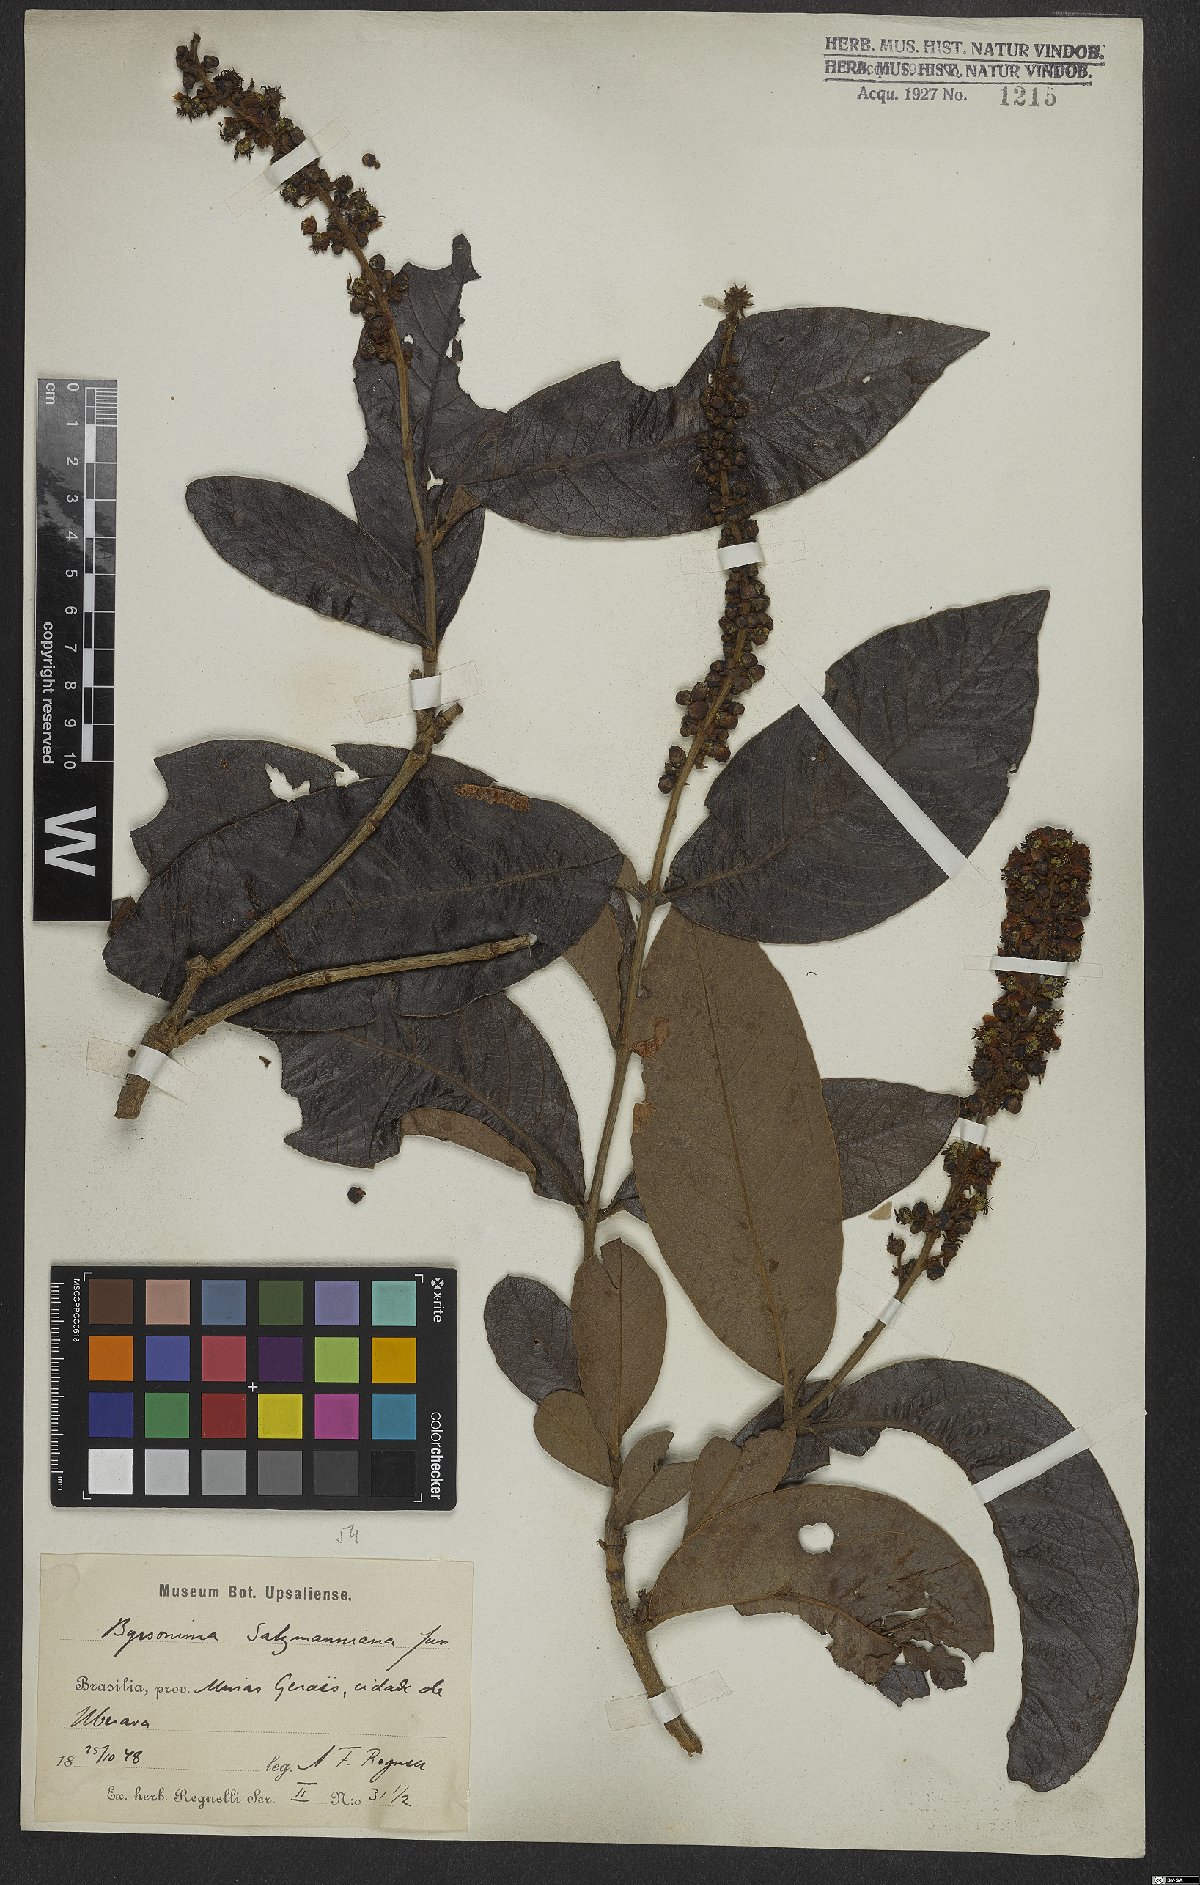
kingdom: Plantae
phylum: Tracheophyta
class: Magnoliopsida
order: Malpighiales
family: Malpighiaceae
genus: Byrsonima
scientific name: Byrsonima salzmanniana
